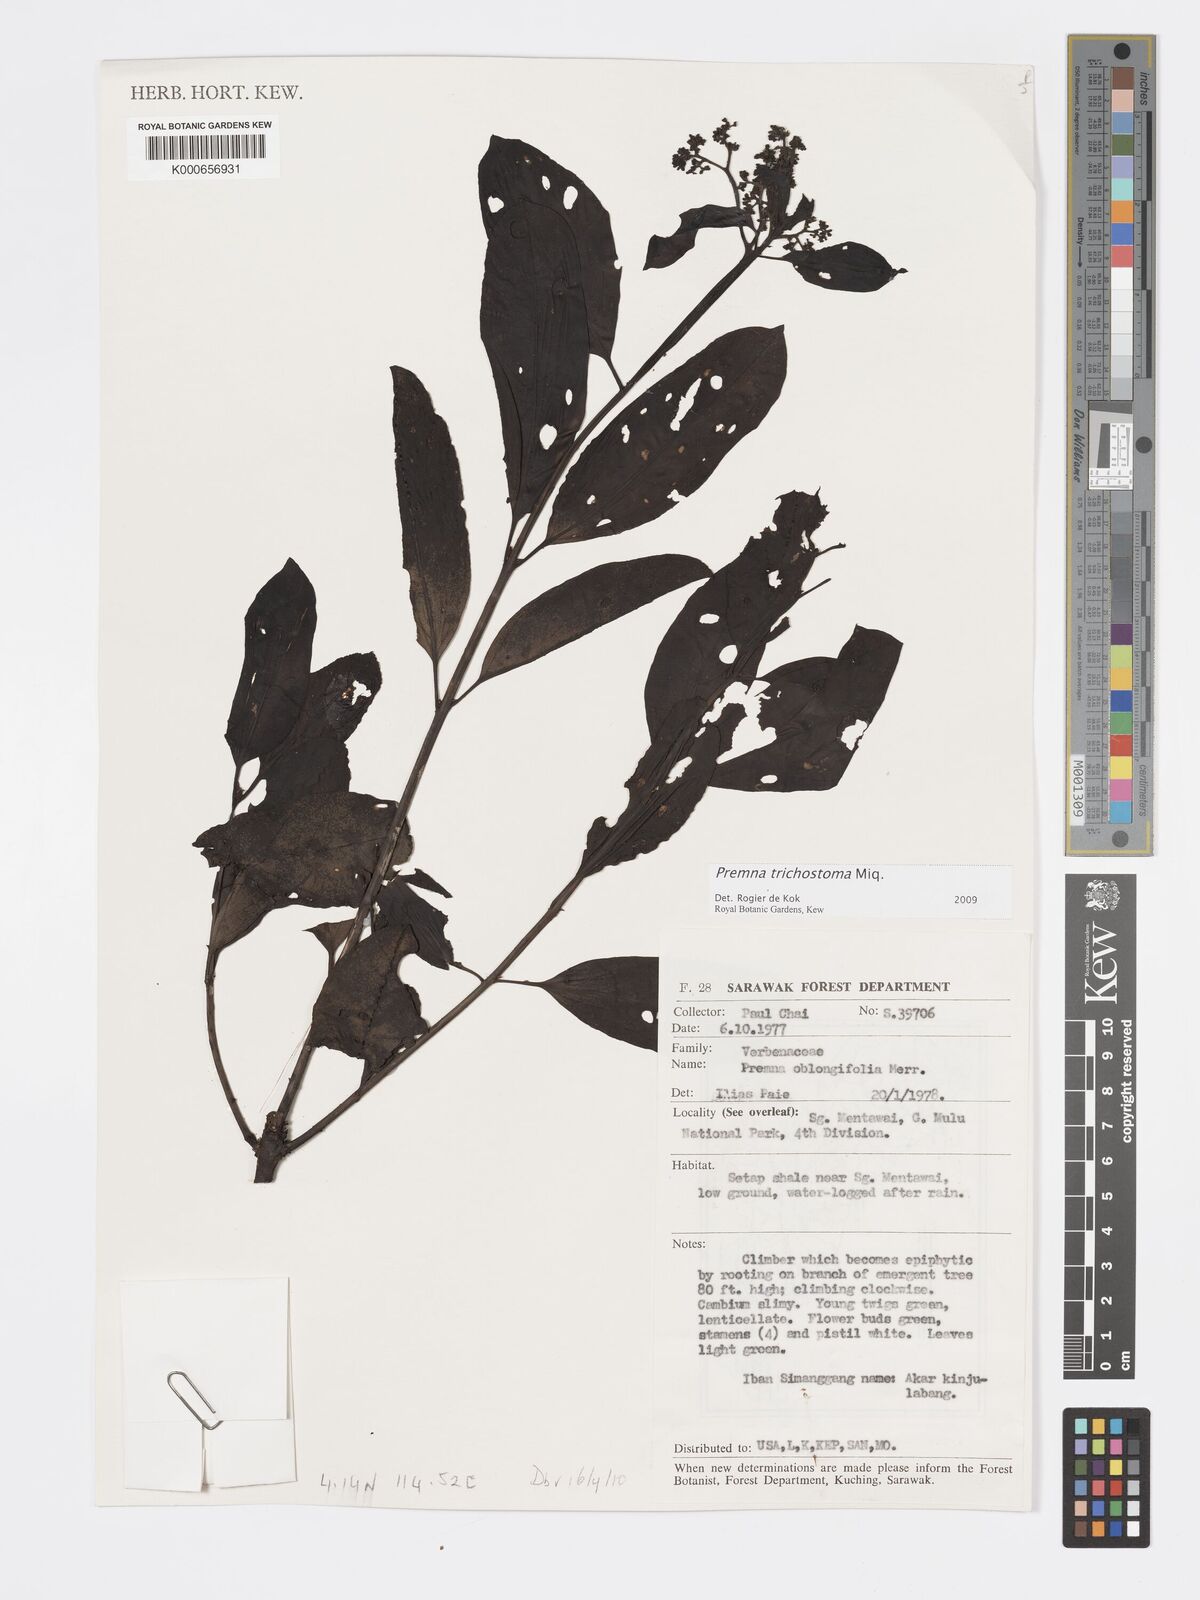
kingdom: Plantae
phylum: Tracheophyta
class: Magnoliopsida
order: Lamiales
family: Lamiaceae
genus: Premna
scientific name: Premna trichostoma
